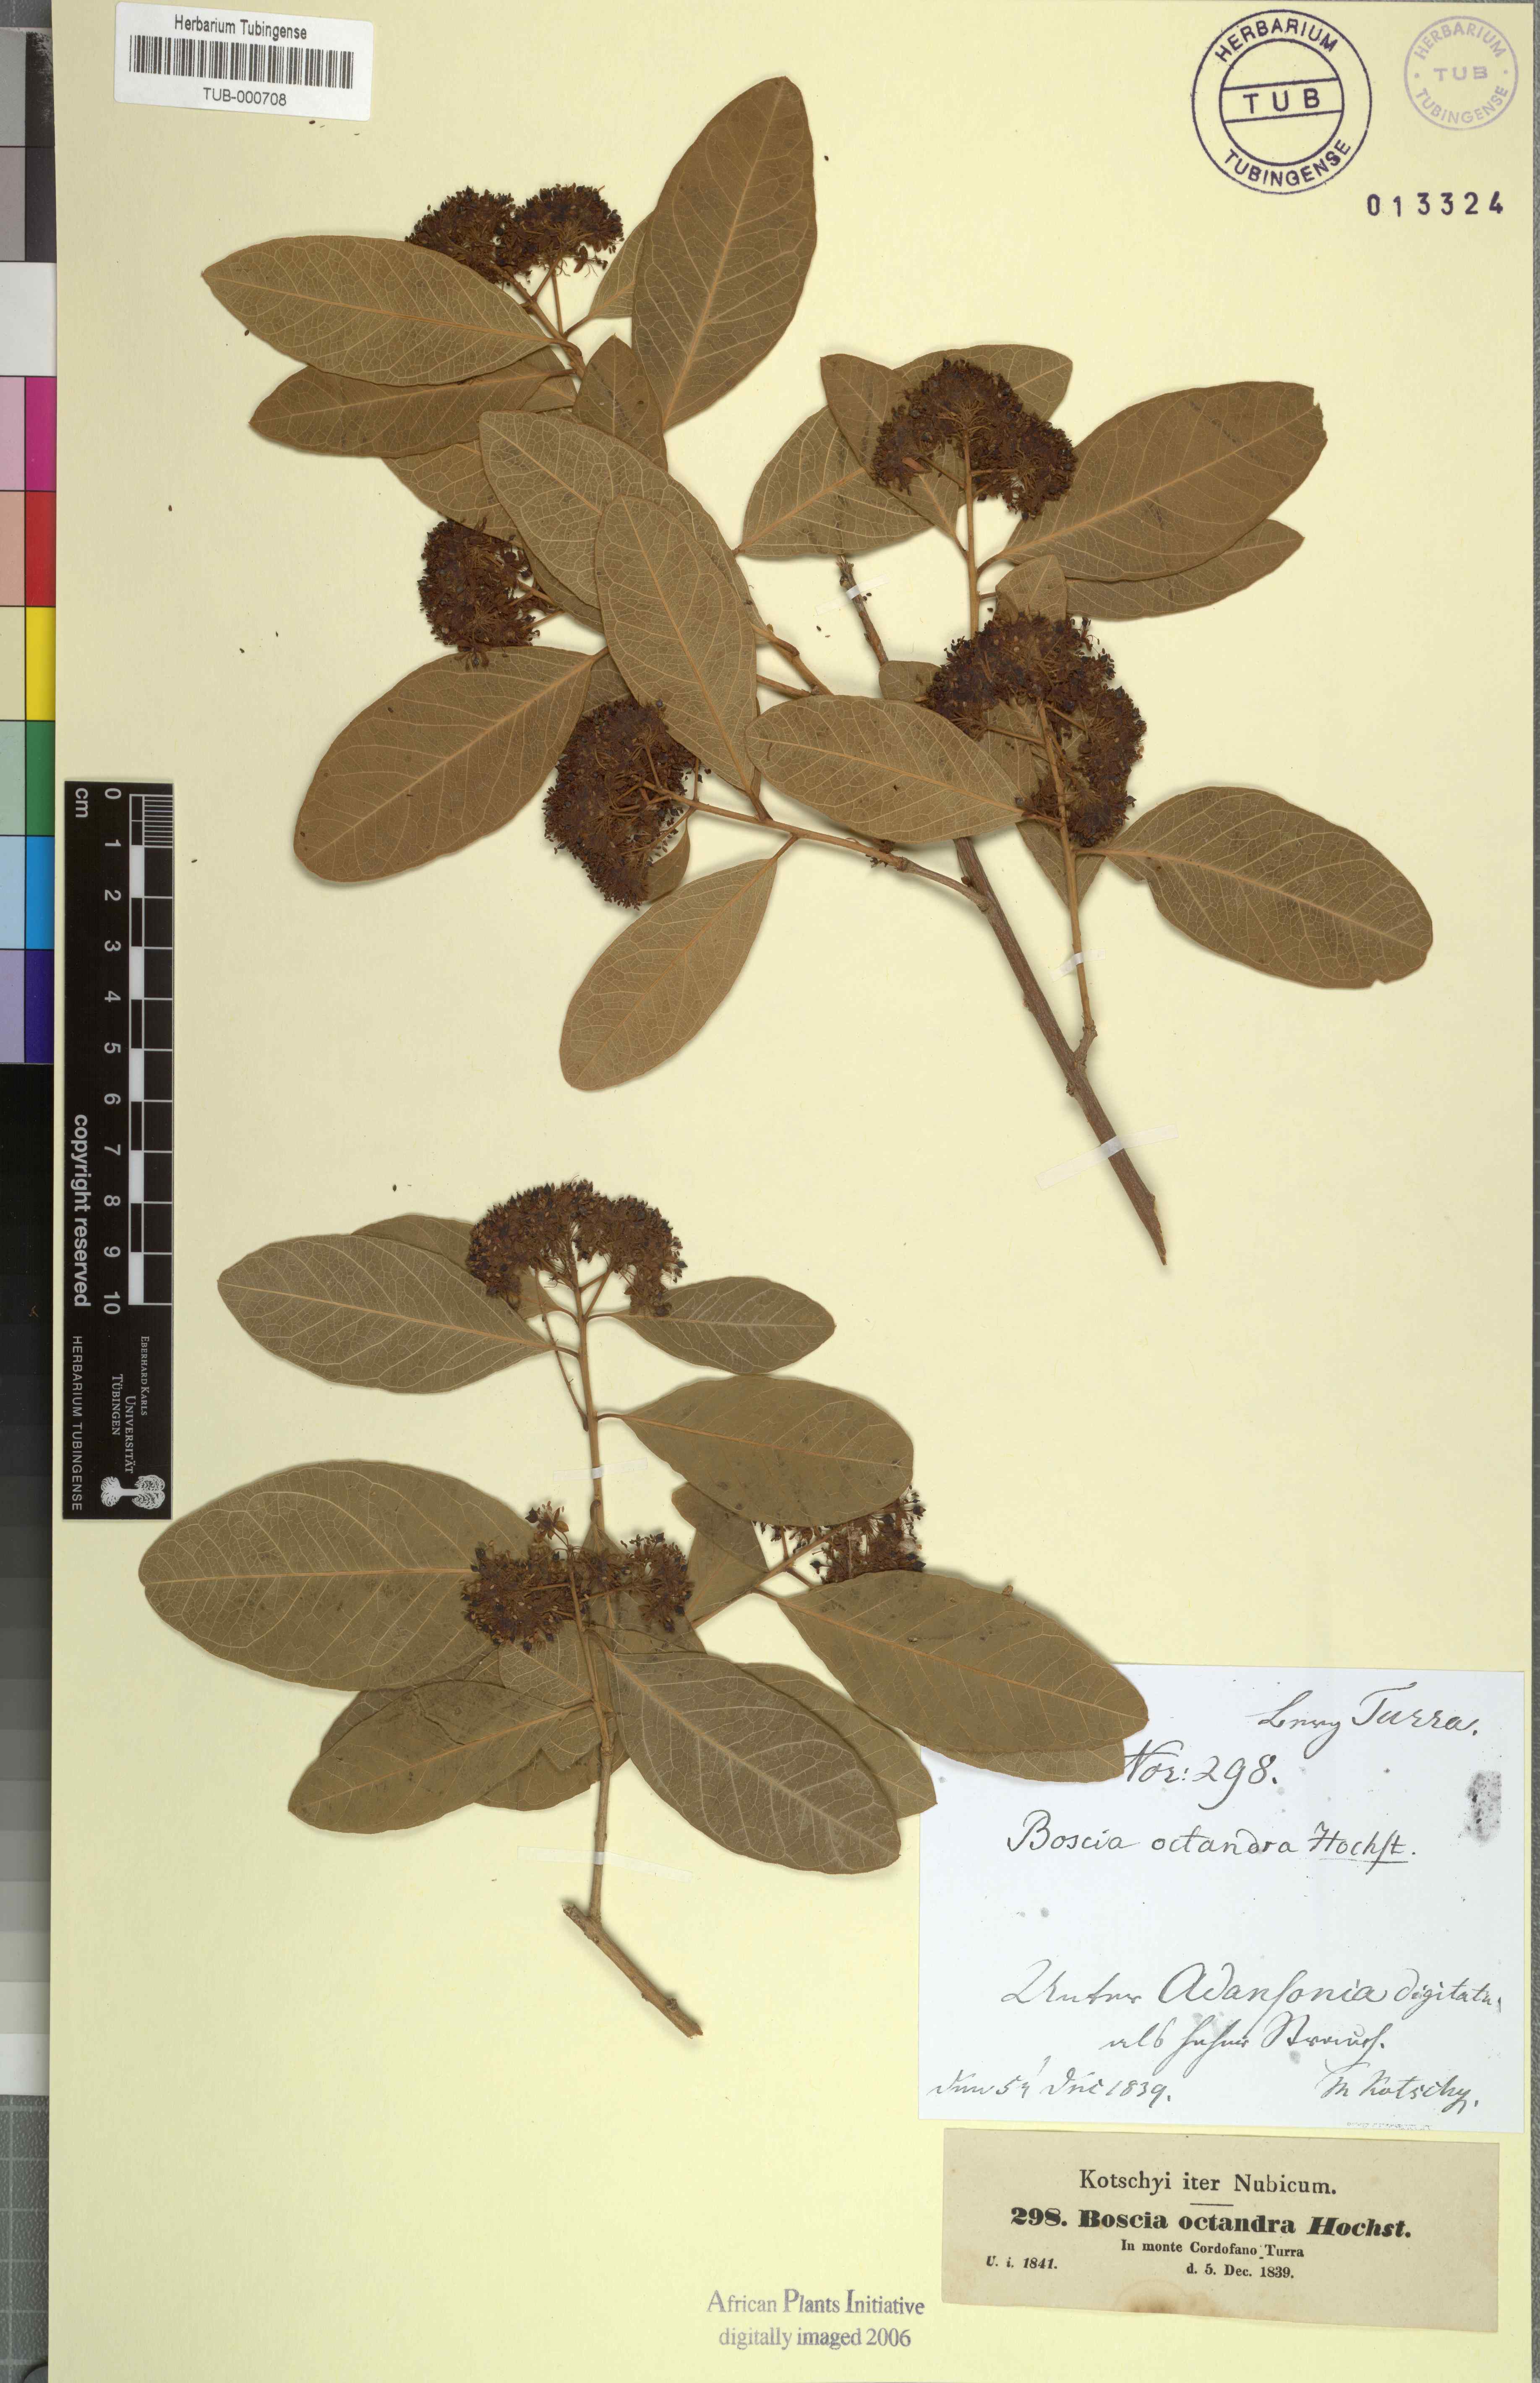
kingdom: Plantae
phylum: Tracheophyta
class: Magnoliopsida
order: Brassicales
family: Capparaceae
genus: Boscia
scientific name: Boscia senegalensis
